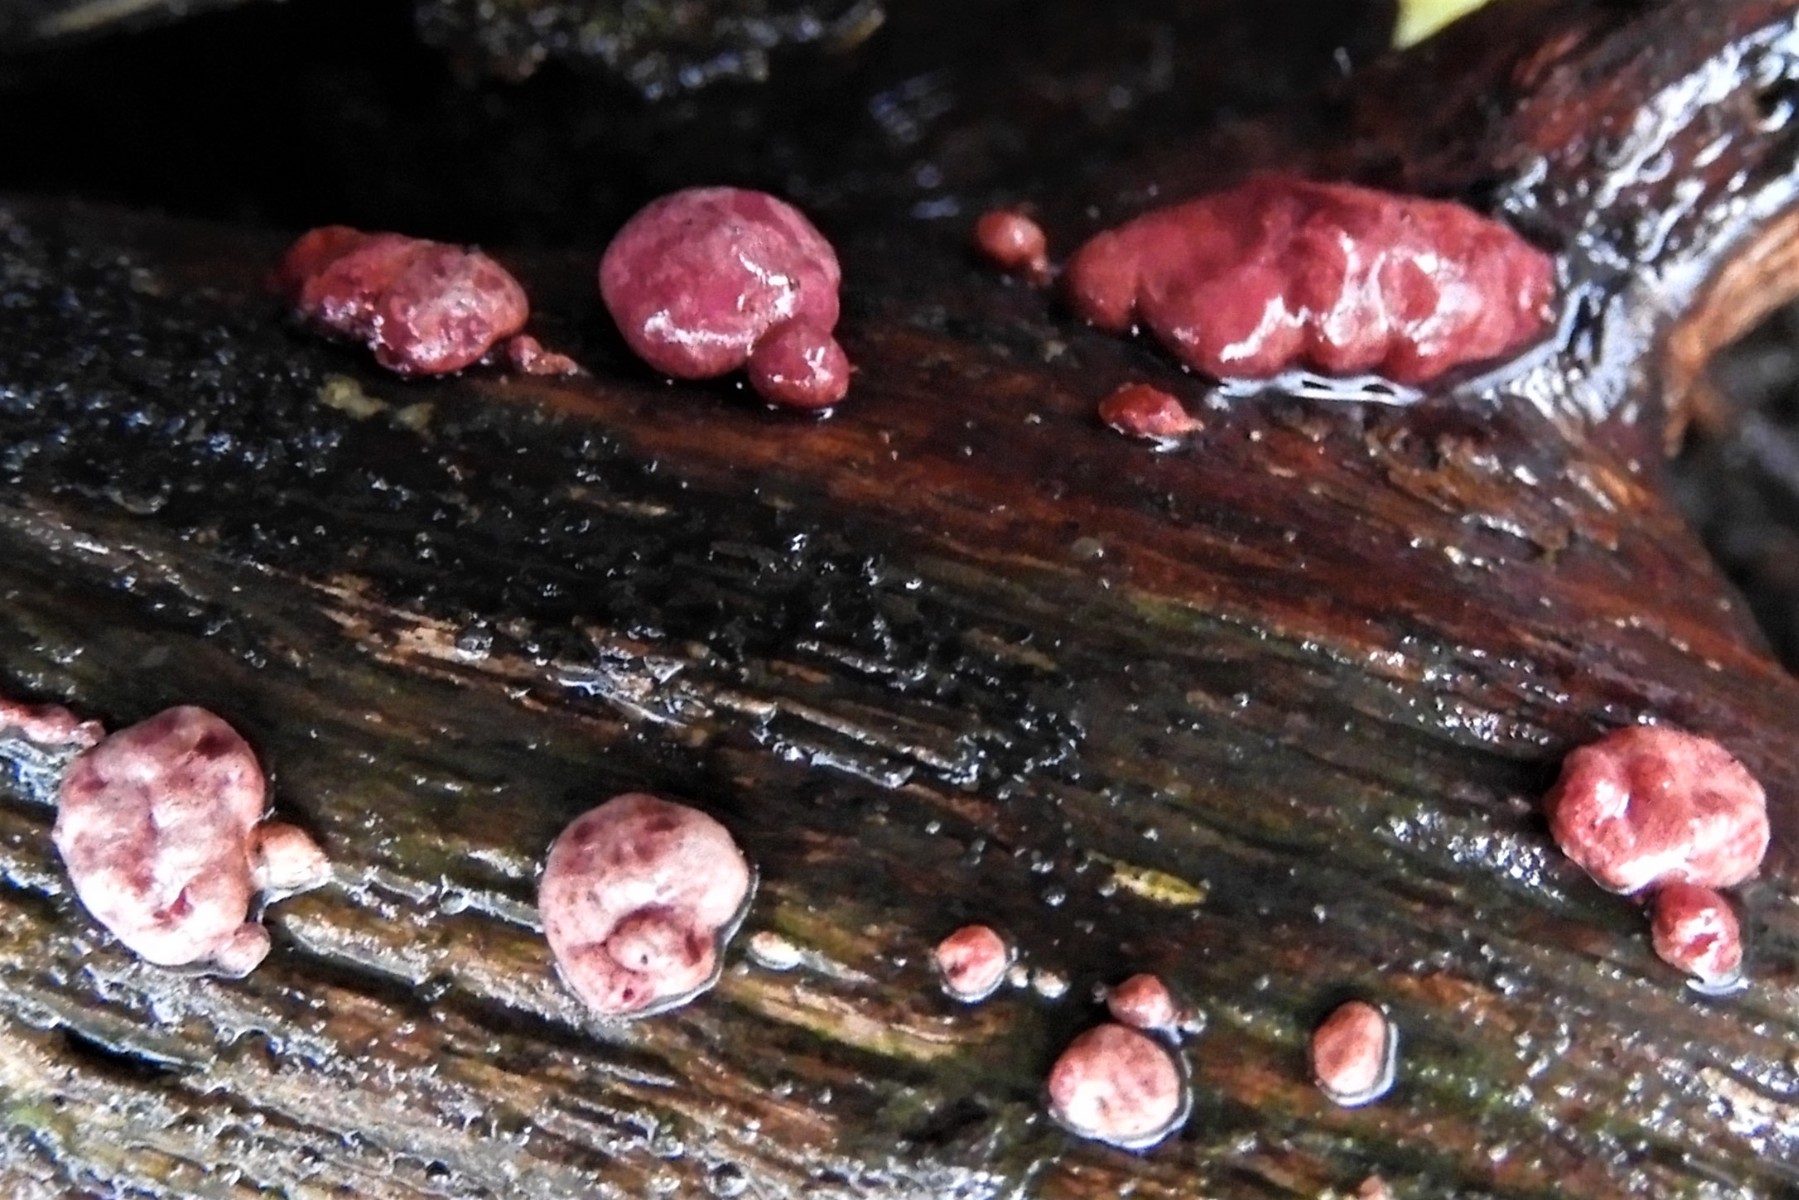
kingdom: Fungi
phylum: Ascomycota
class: Sordariomycetes
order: Hypocreales
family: Hypocreaceae
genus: Trichoderma
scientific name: Trichoderma europaeum
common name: rosabrun kødkerne
